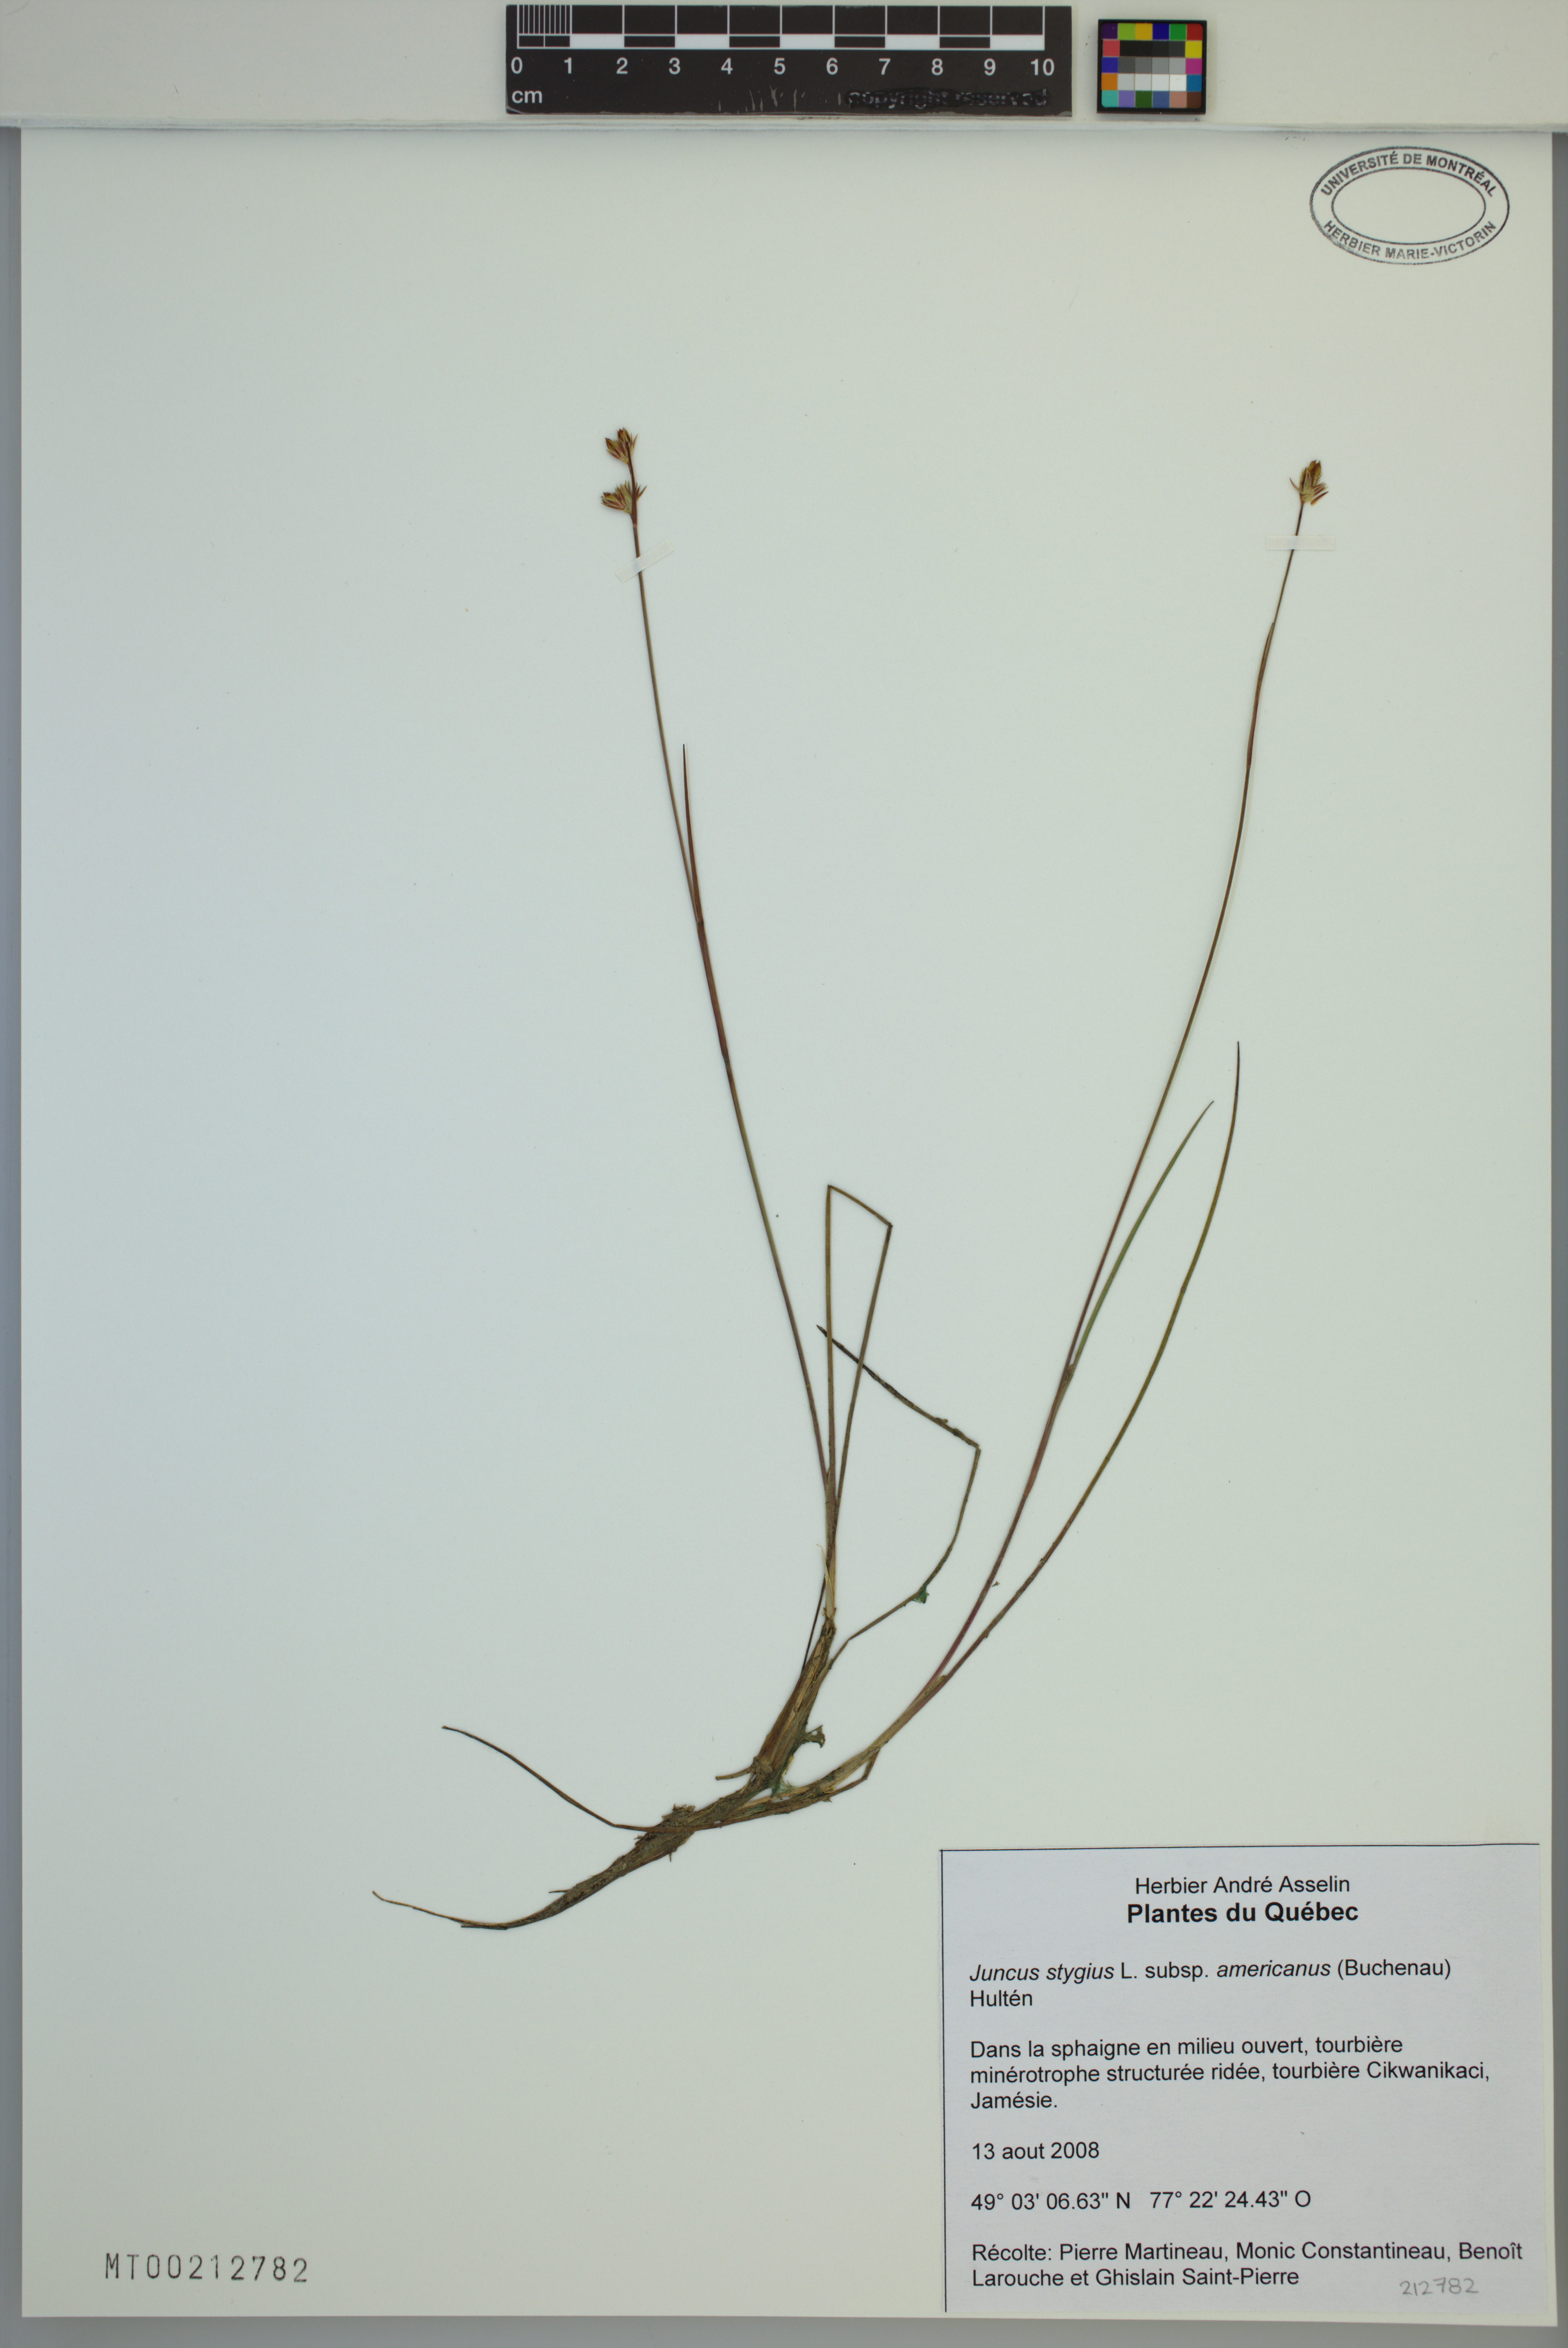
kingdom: Plantae
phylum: Tracheophyta
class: Liliopsida
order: Poales
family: Juncaceae
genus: Juncus
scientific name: Juncus stygius
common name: Bog rush
